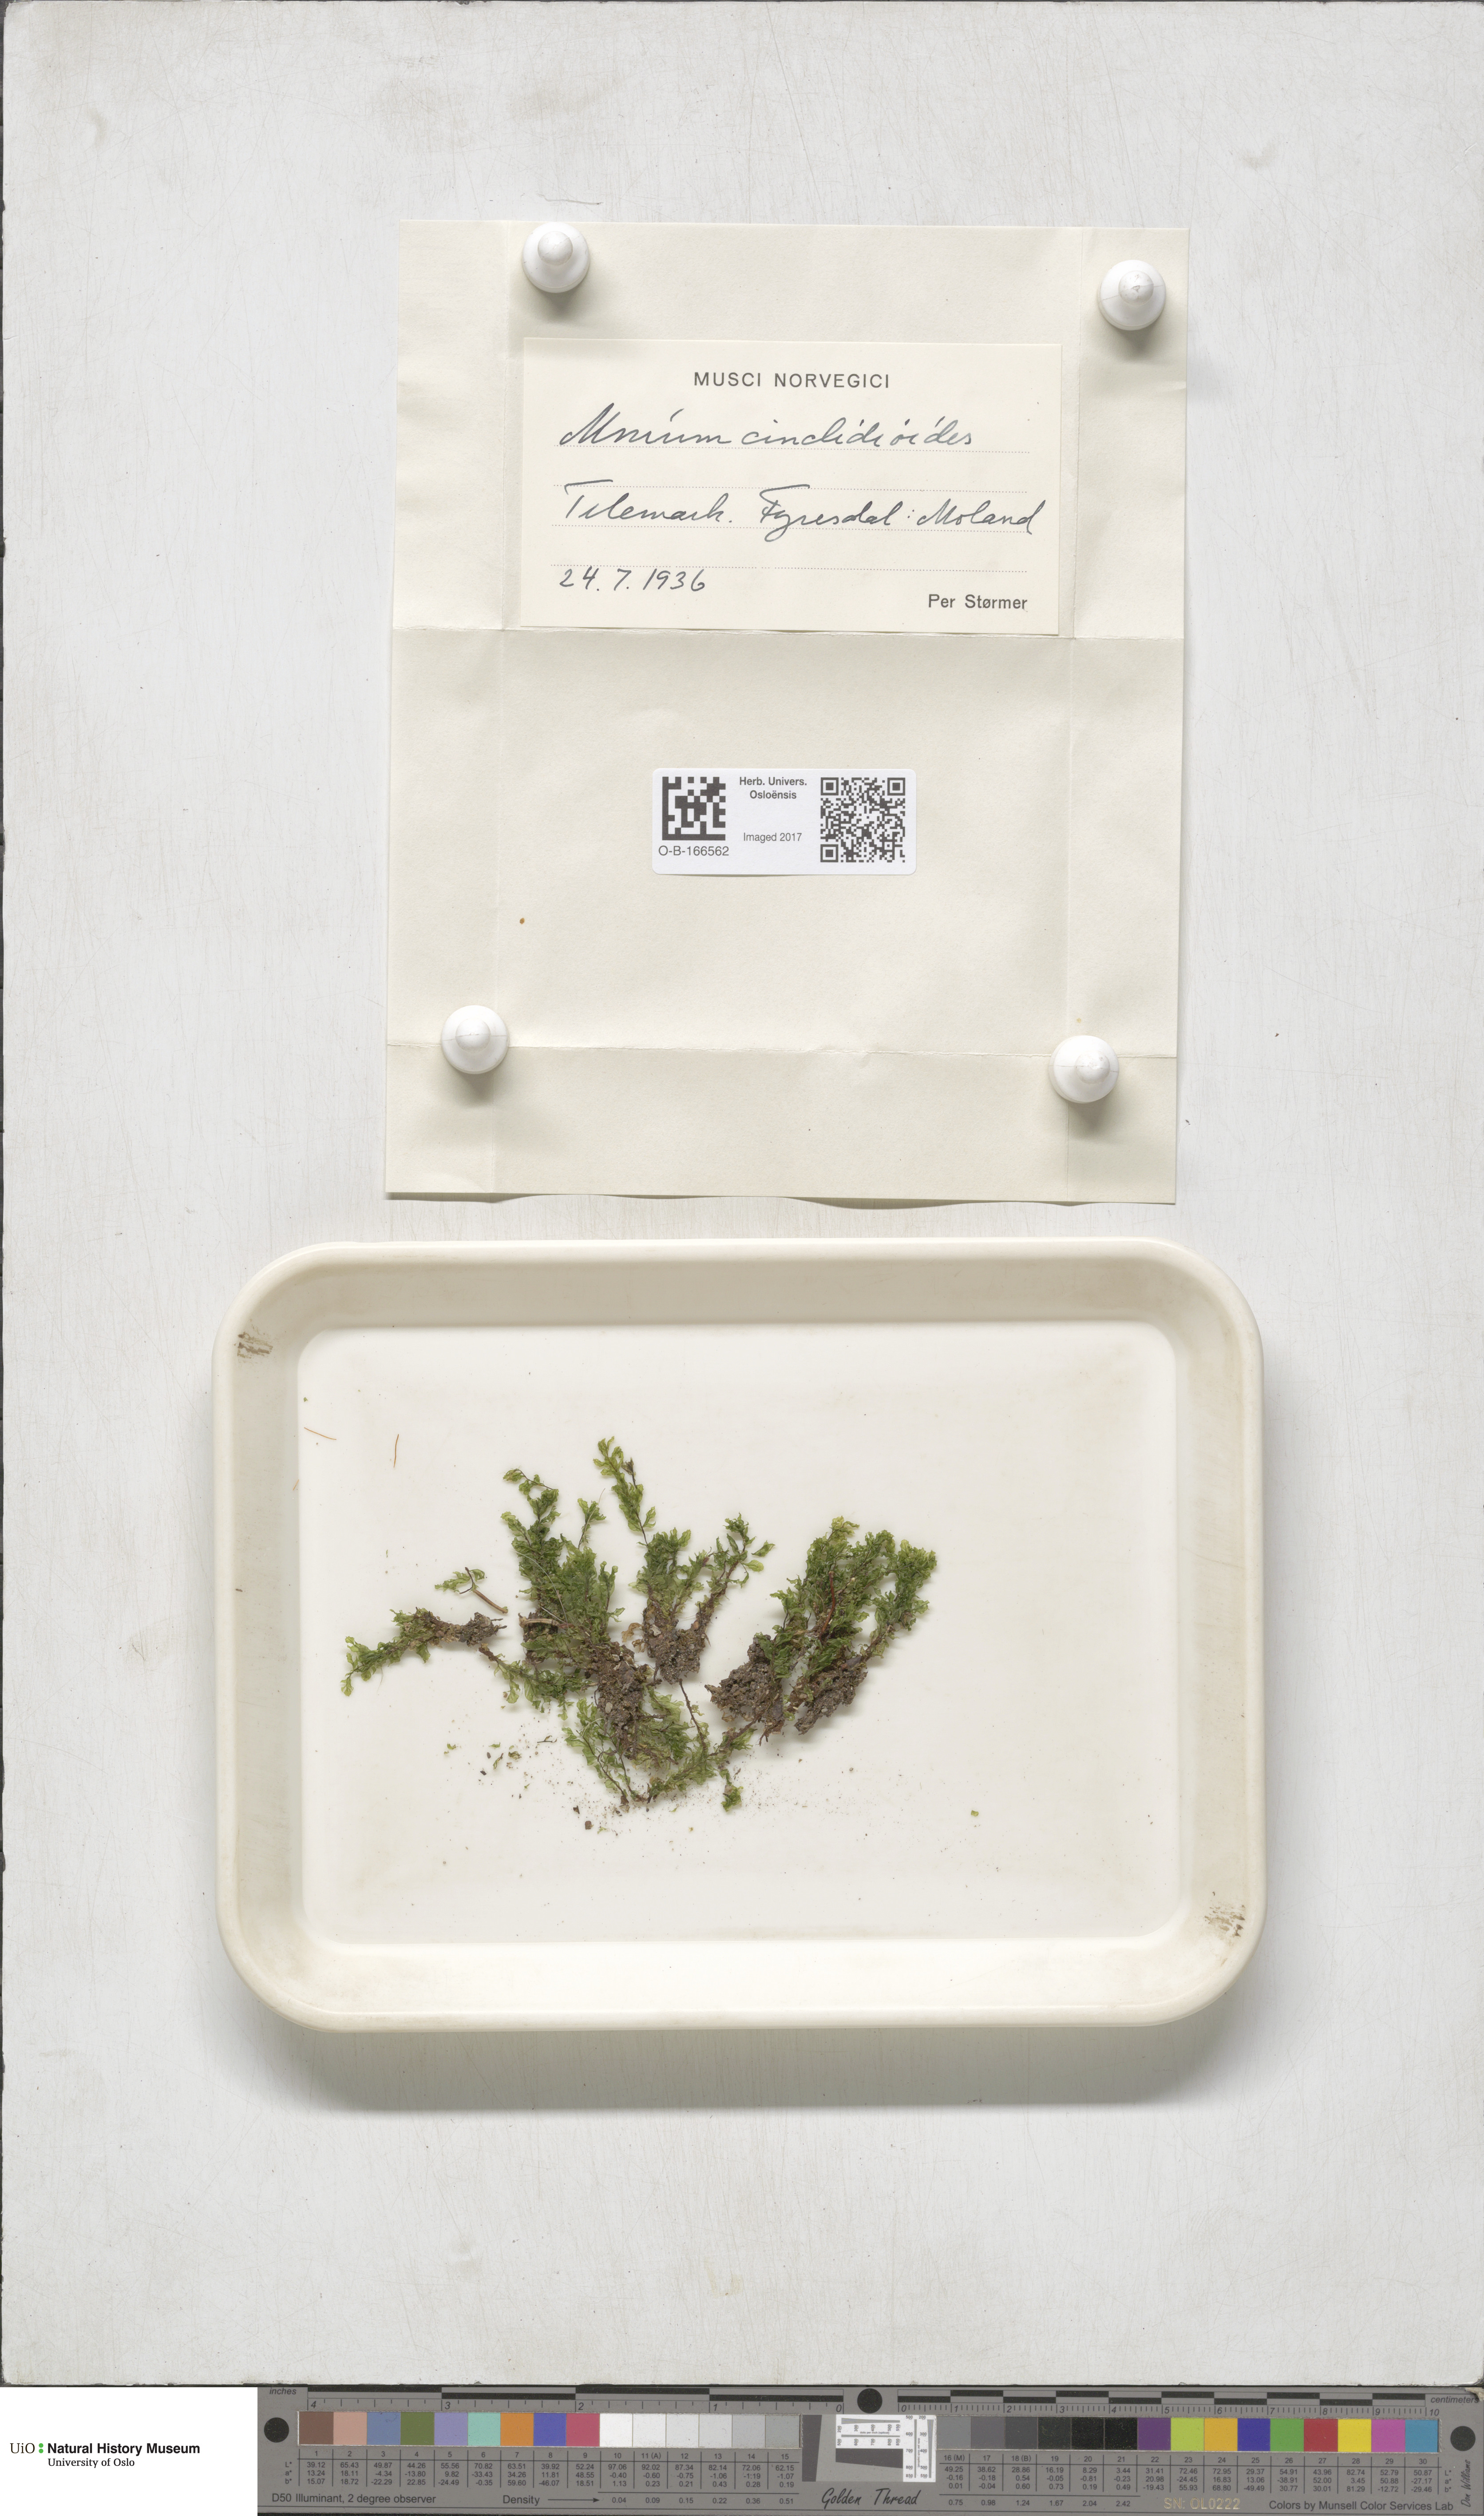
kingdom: Plantae
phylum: Bryophyta
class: Bryopsida
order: Bryales
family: Mniaceae
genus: Pseudobryum
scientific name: Pseudobryum cinclidioides
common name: River thyme moss
